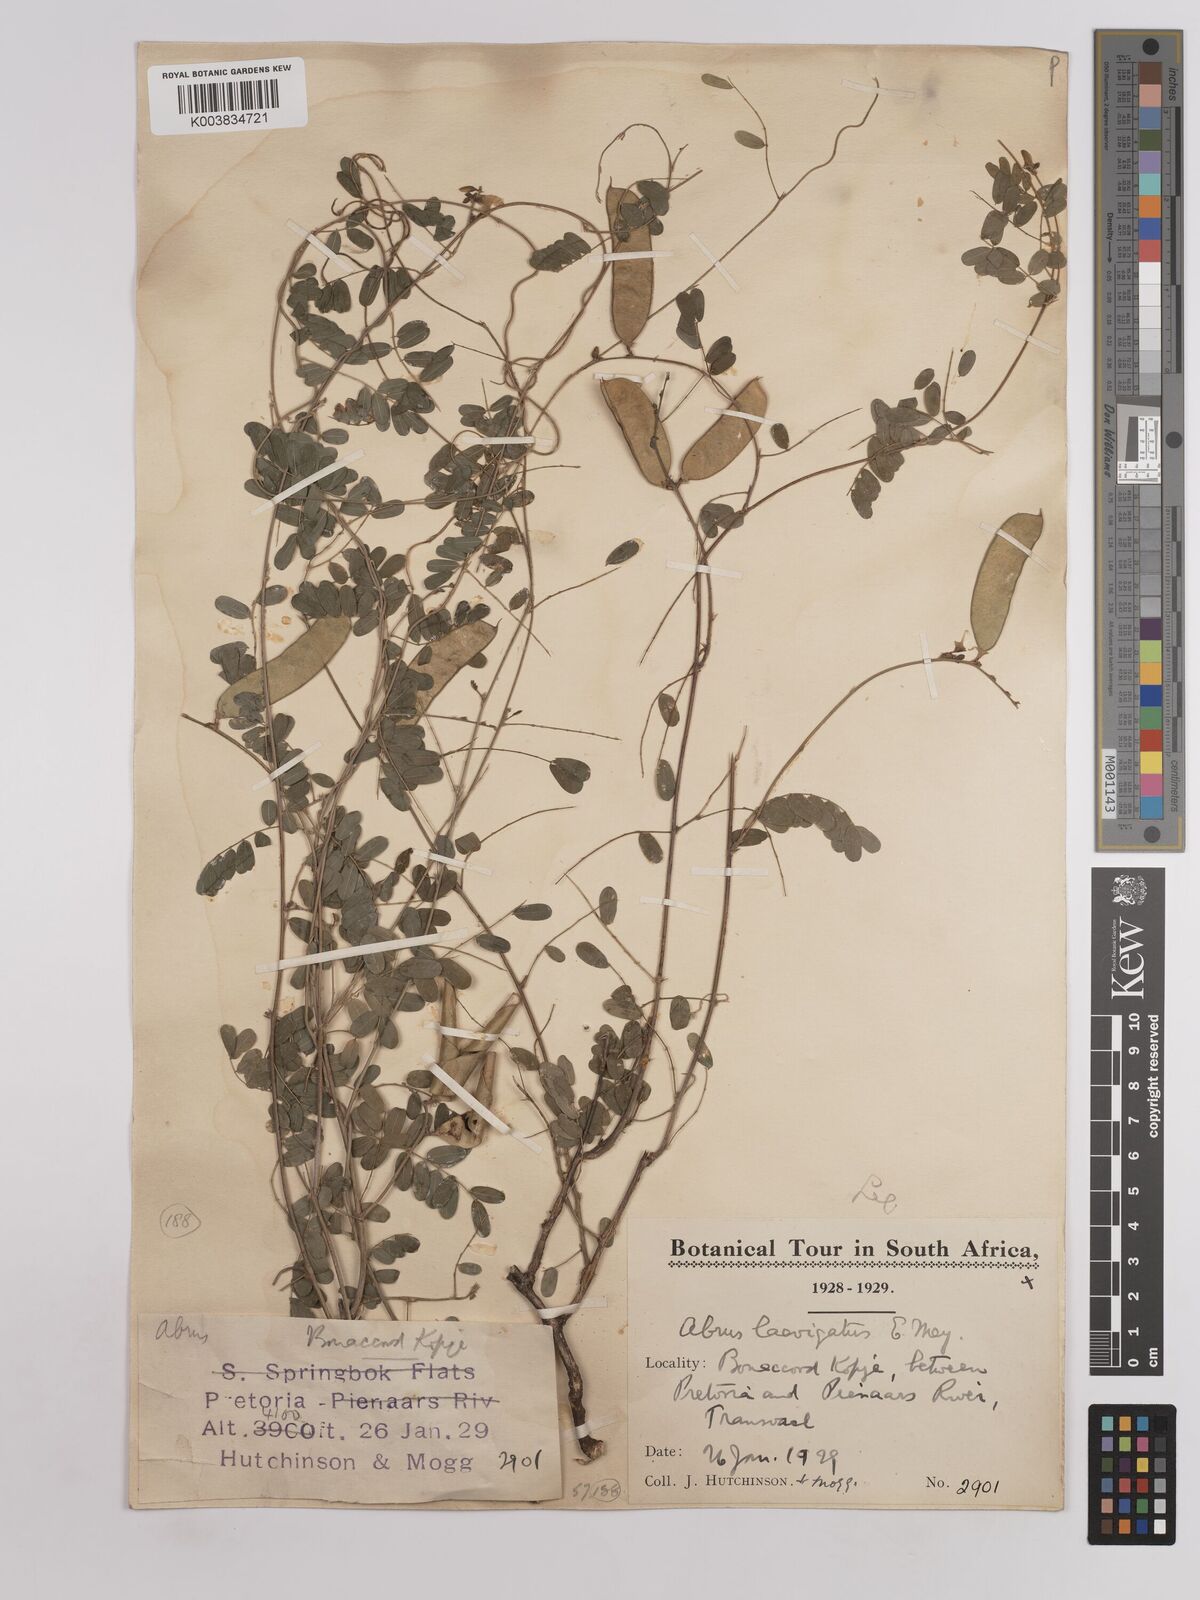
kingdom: Plantae
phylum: Tracheophyta
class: Magnoliopsida
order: Fabales
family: Fabaceae
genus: Abrus
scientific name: Abrus laevigatus
